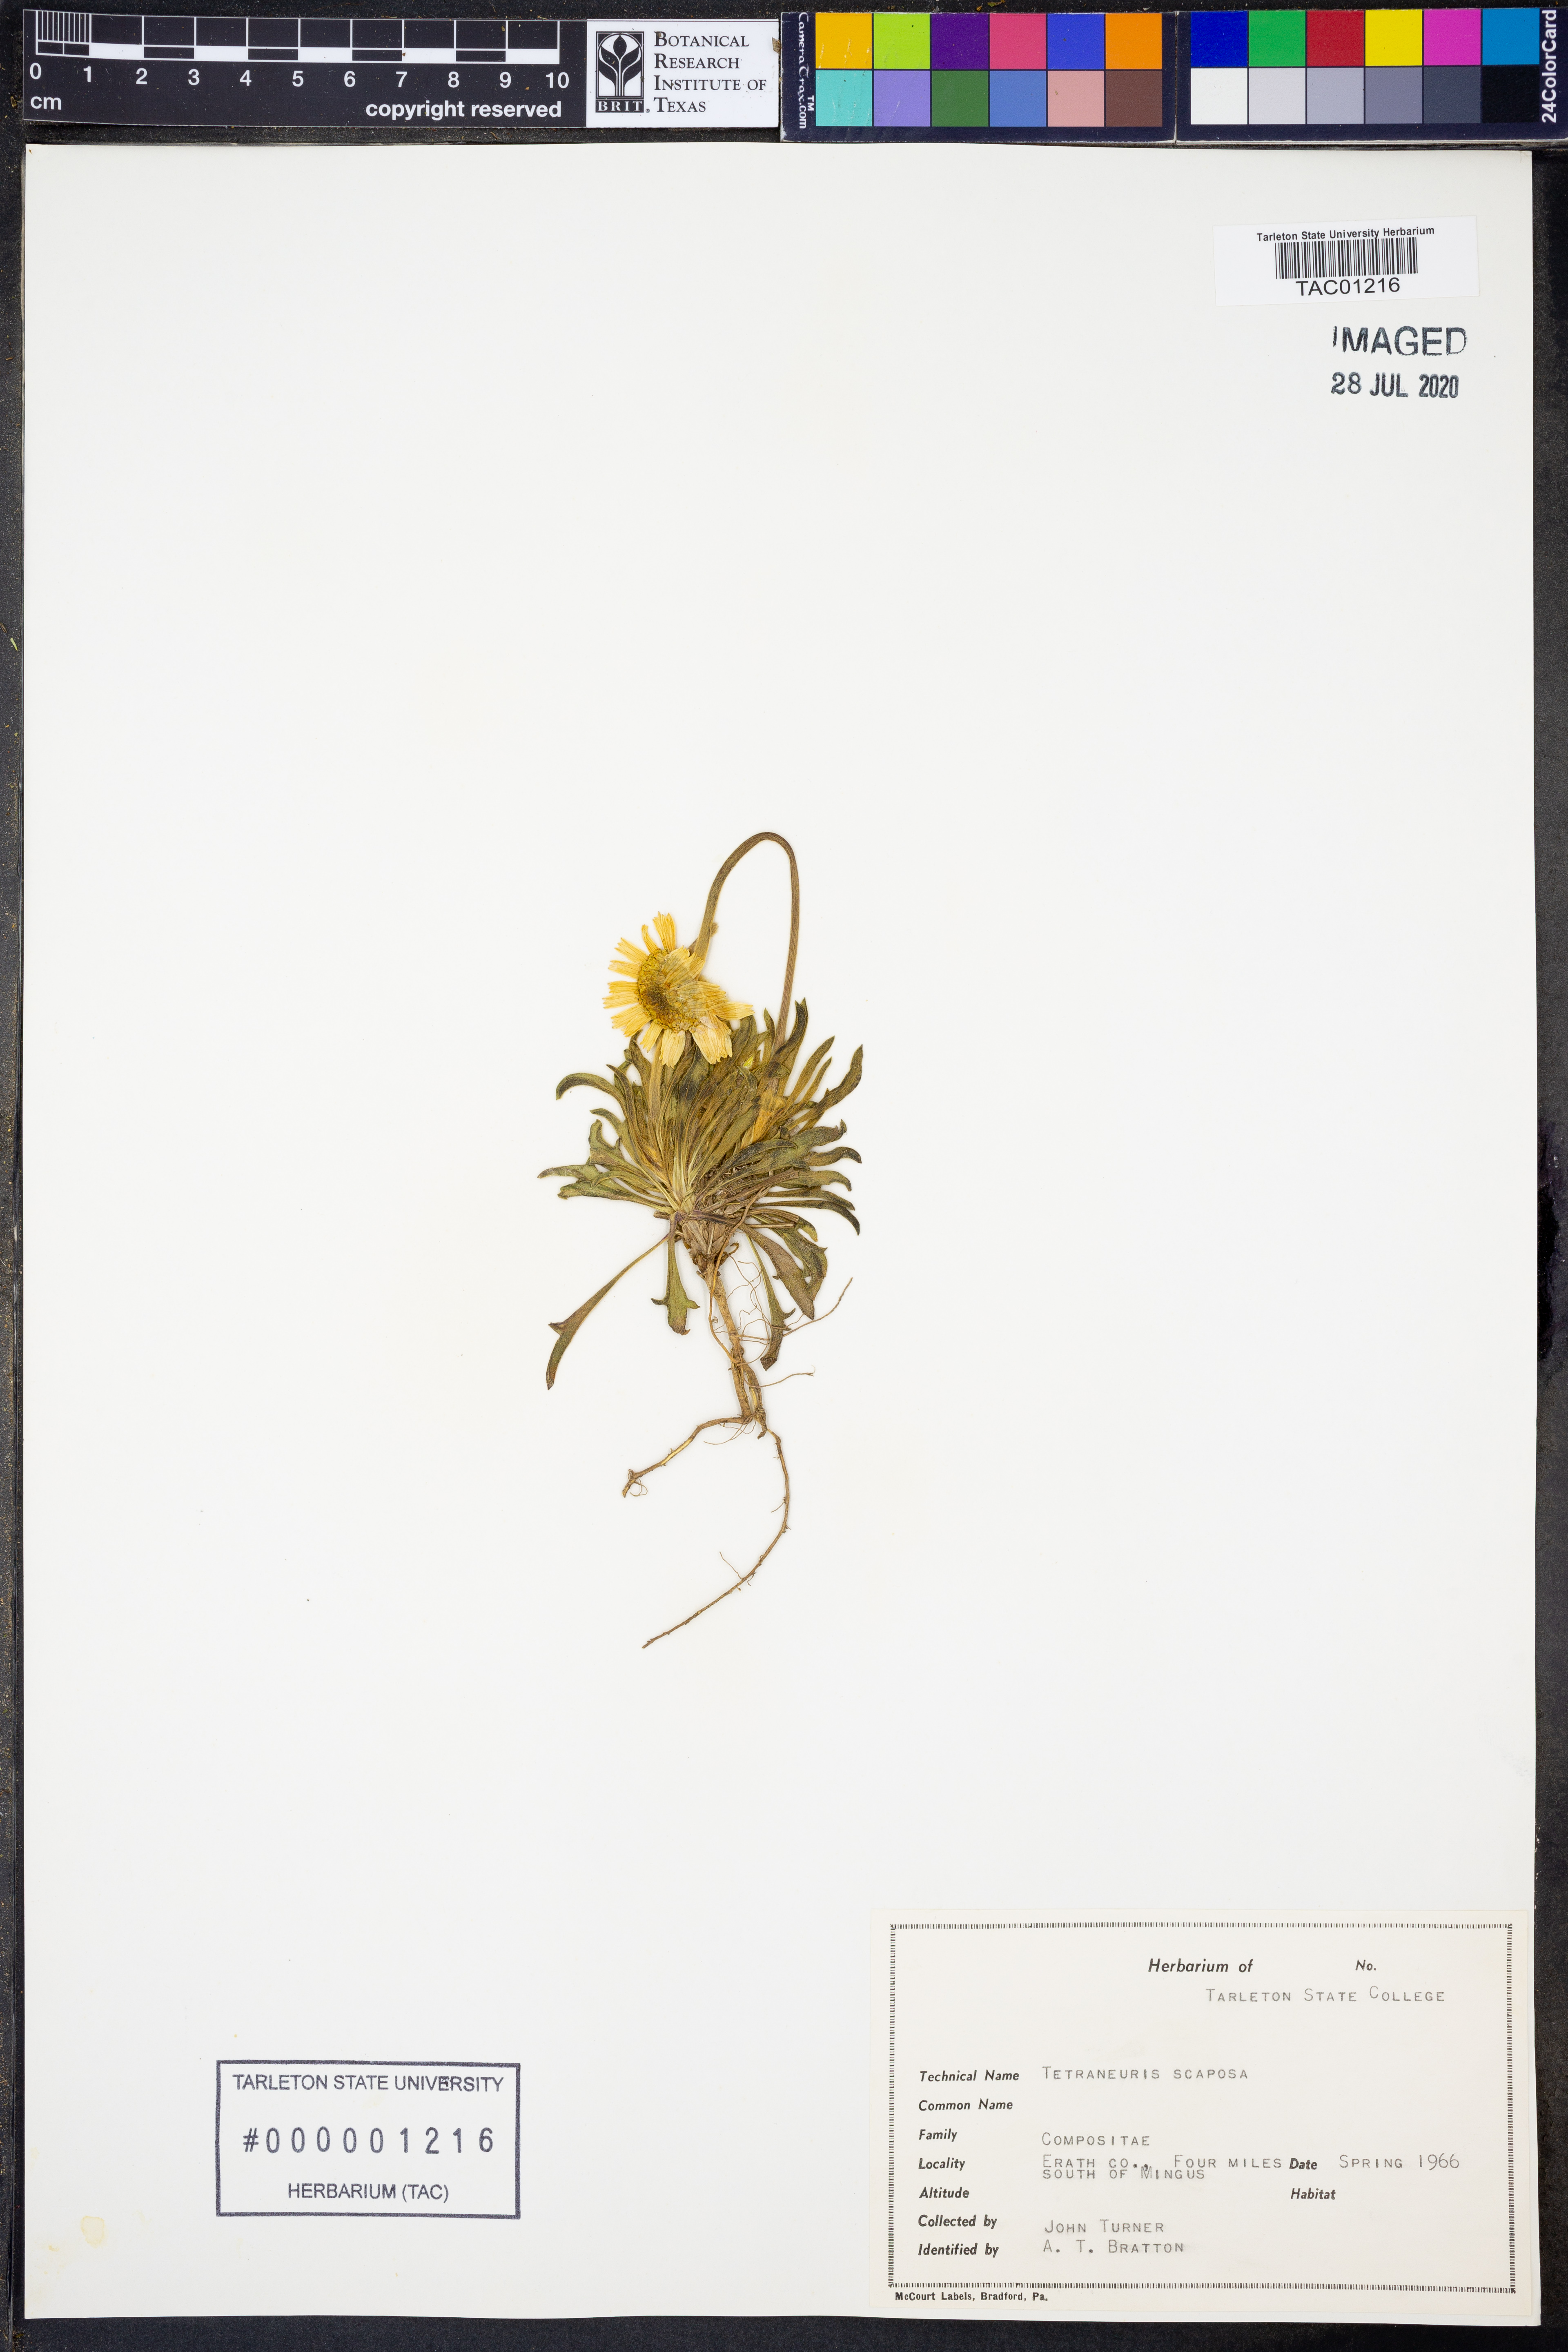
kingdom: Plantae
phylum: Tracheophyta
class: Magnoliopsida
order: Asterales
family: Asteraceae
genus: Tetraneuris
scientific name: Tetraneuris scaposa
